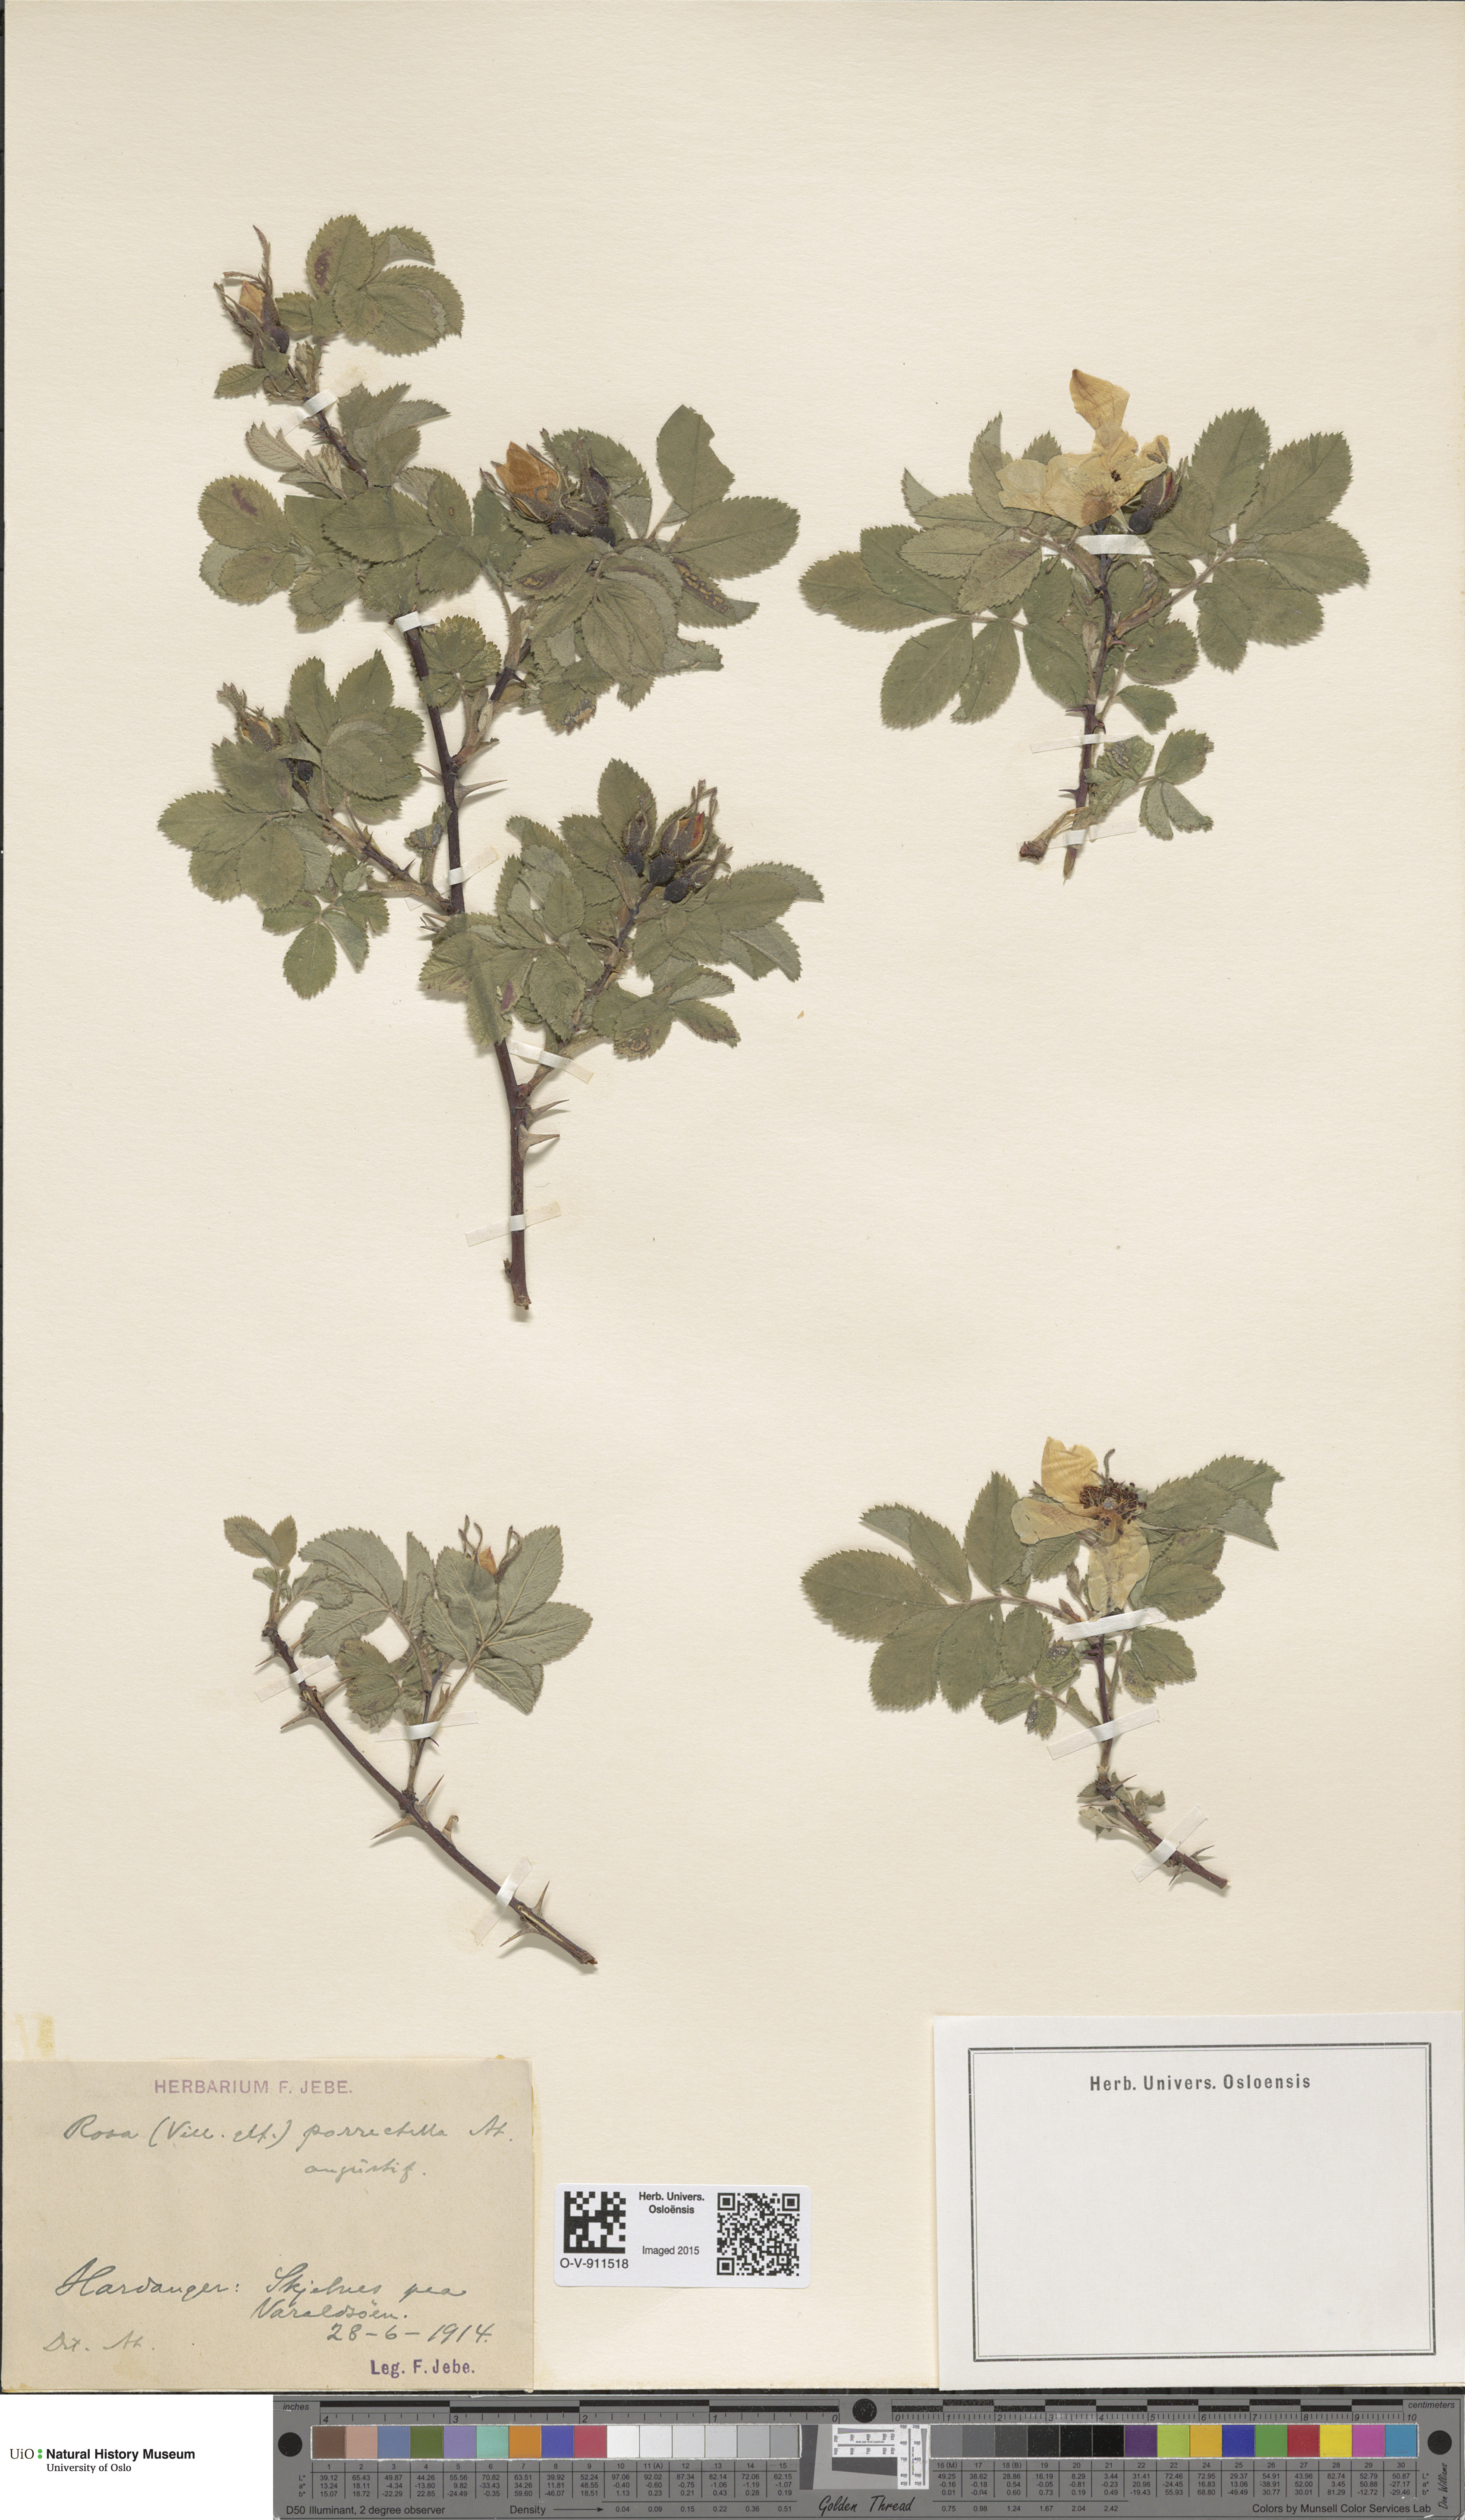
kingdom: Plantae
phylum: Tracheophyta
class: Magnoliopsida
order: Rosales
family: Rosaceae
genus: Rosa
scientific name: Rosa mollis
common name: Rose
